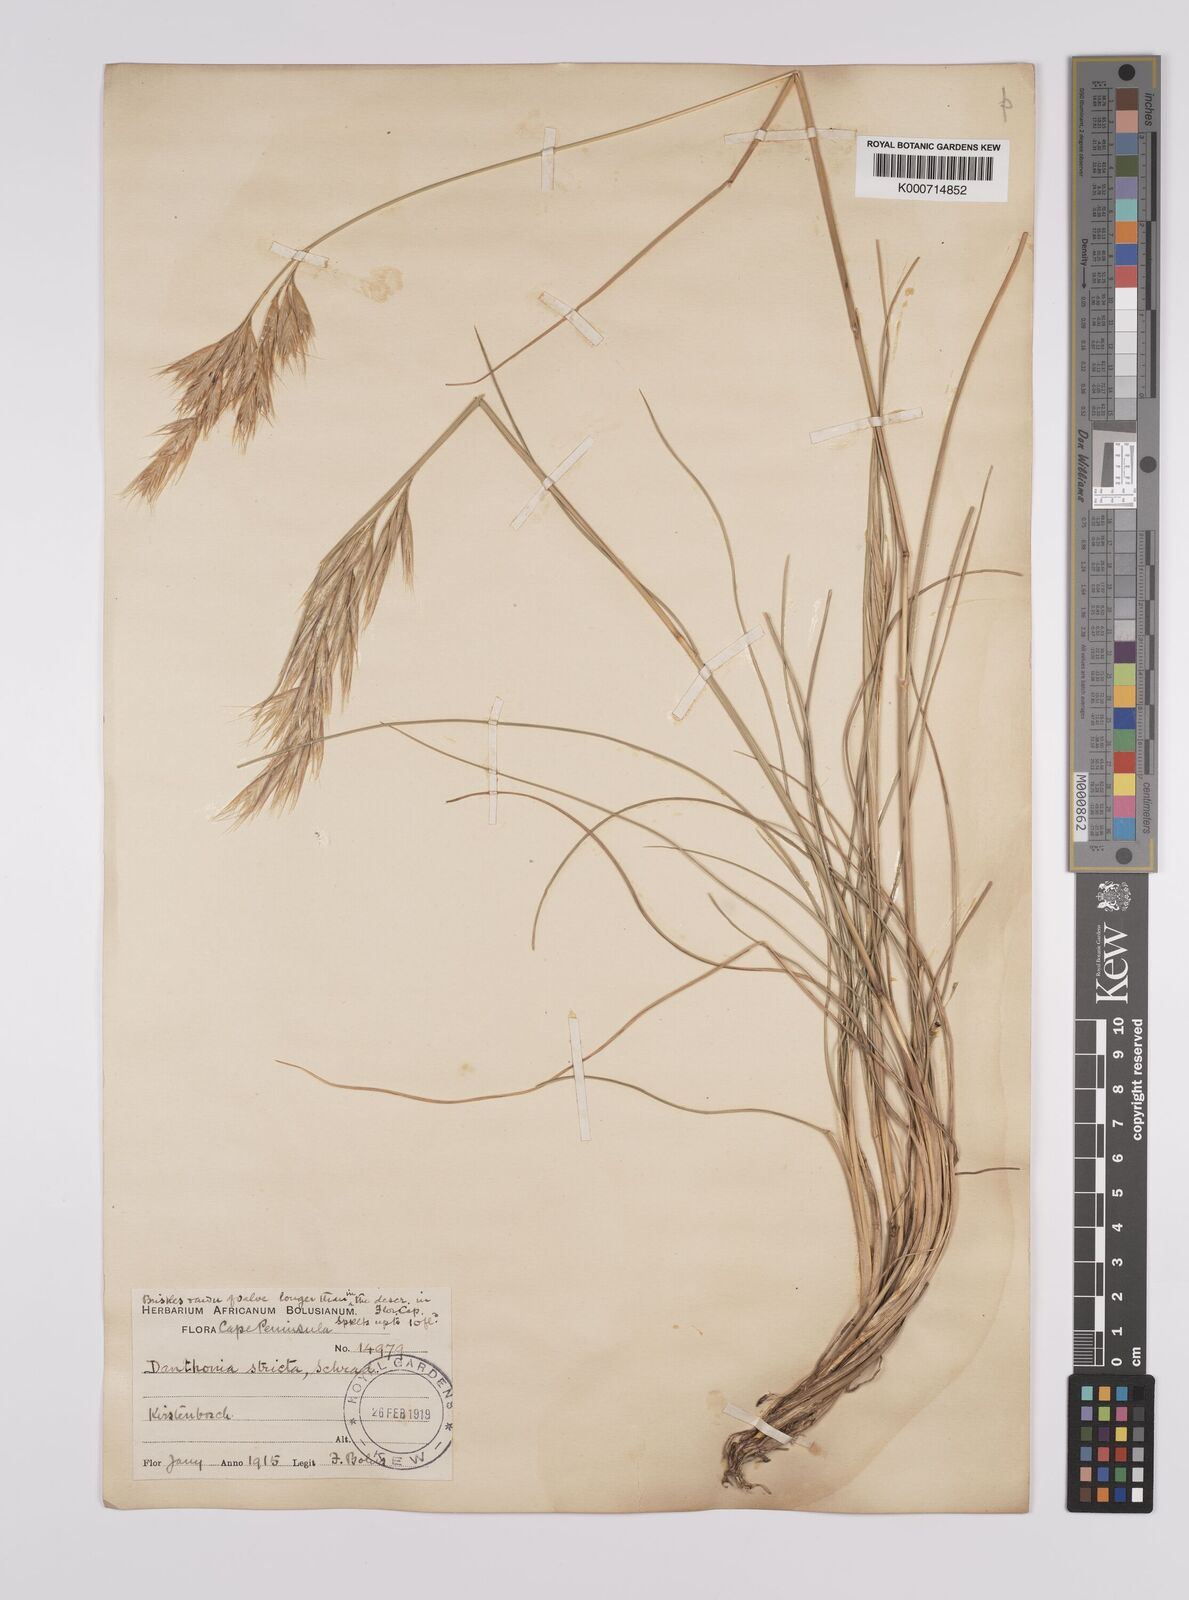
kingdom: Plantae
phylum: Tracheophyta
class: Liliopsida
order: Poales
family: Poaceae
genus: Rytidosperma
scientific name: Rytidosperma
